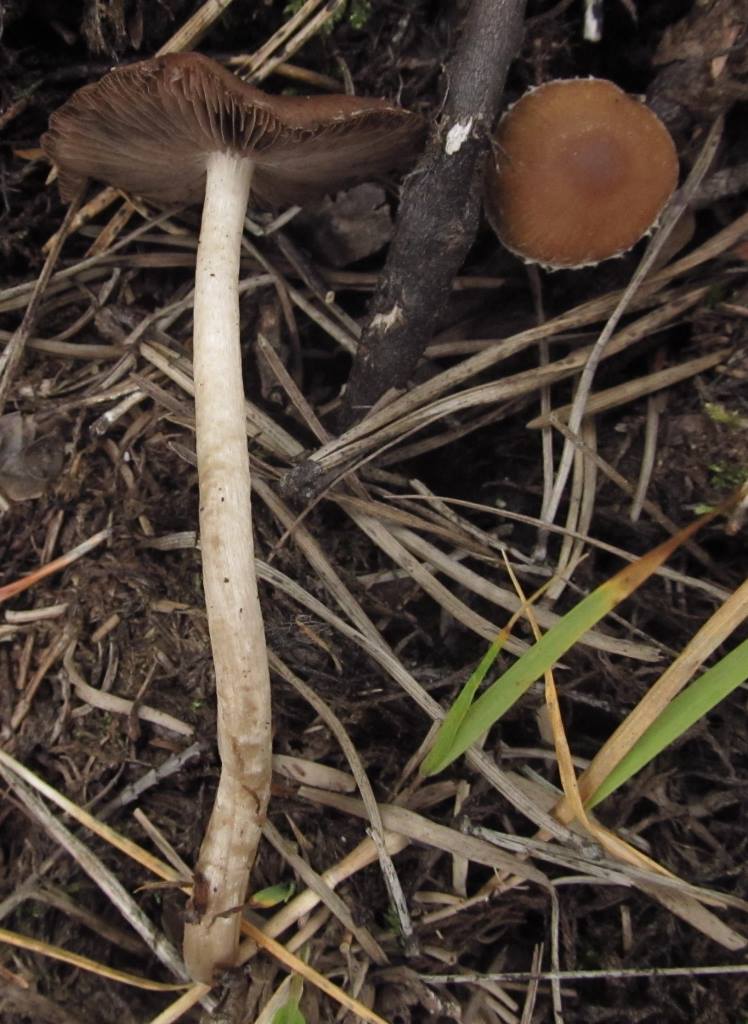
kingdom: Fungi
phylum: Basidiomycota
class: Agaricomycetes
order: Agaricales
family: Psathyrellaceae
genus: Psathyrella
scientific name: Psathyrella squamosa
